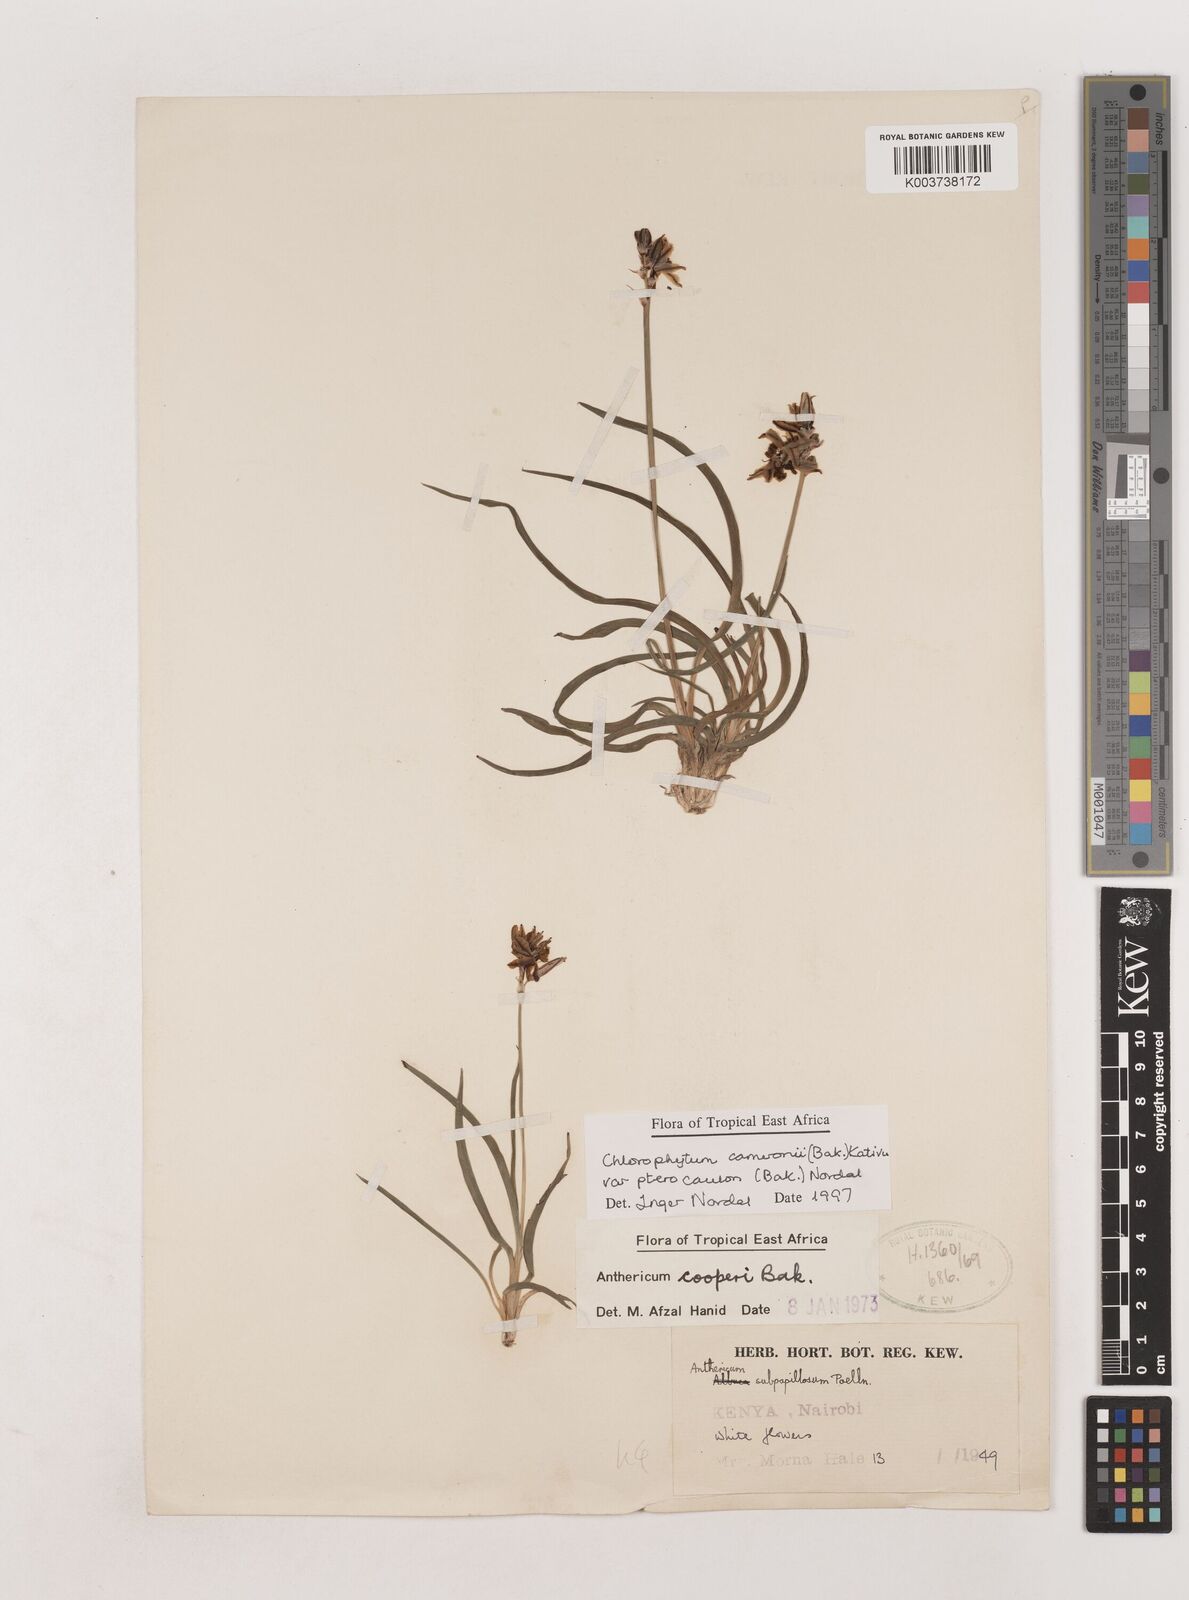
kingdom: Plantae
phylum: Tracheophyta
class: Liliopsida
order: Asparagales
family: Asparagaceae
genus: Chlorophytum
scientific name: Chlorophytum cameronii
